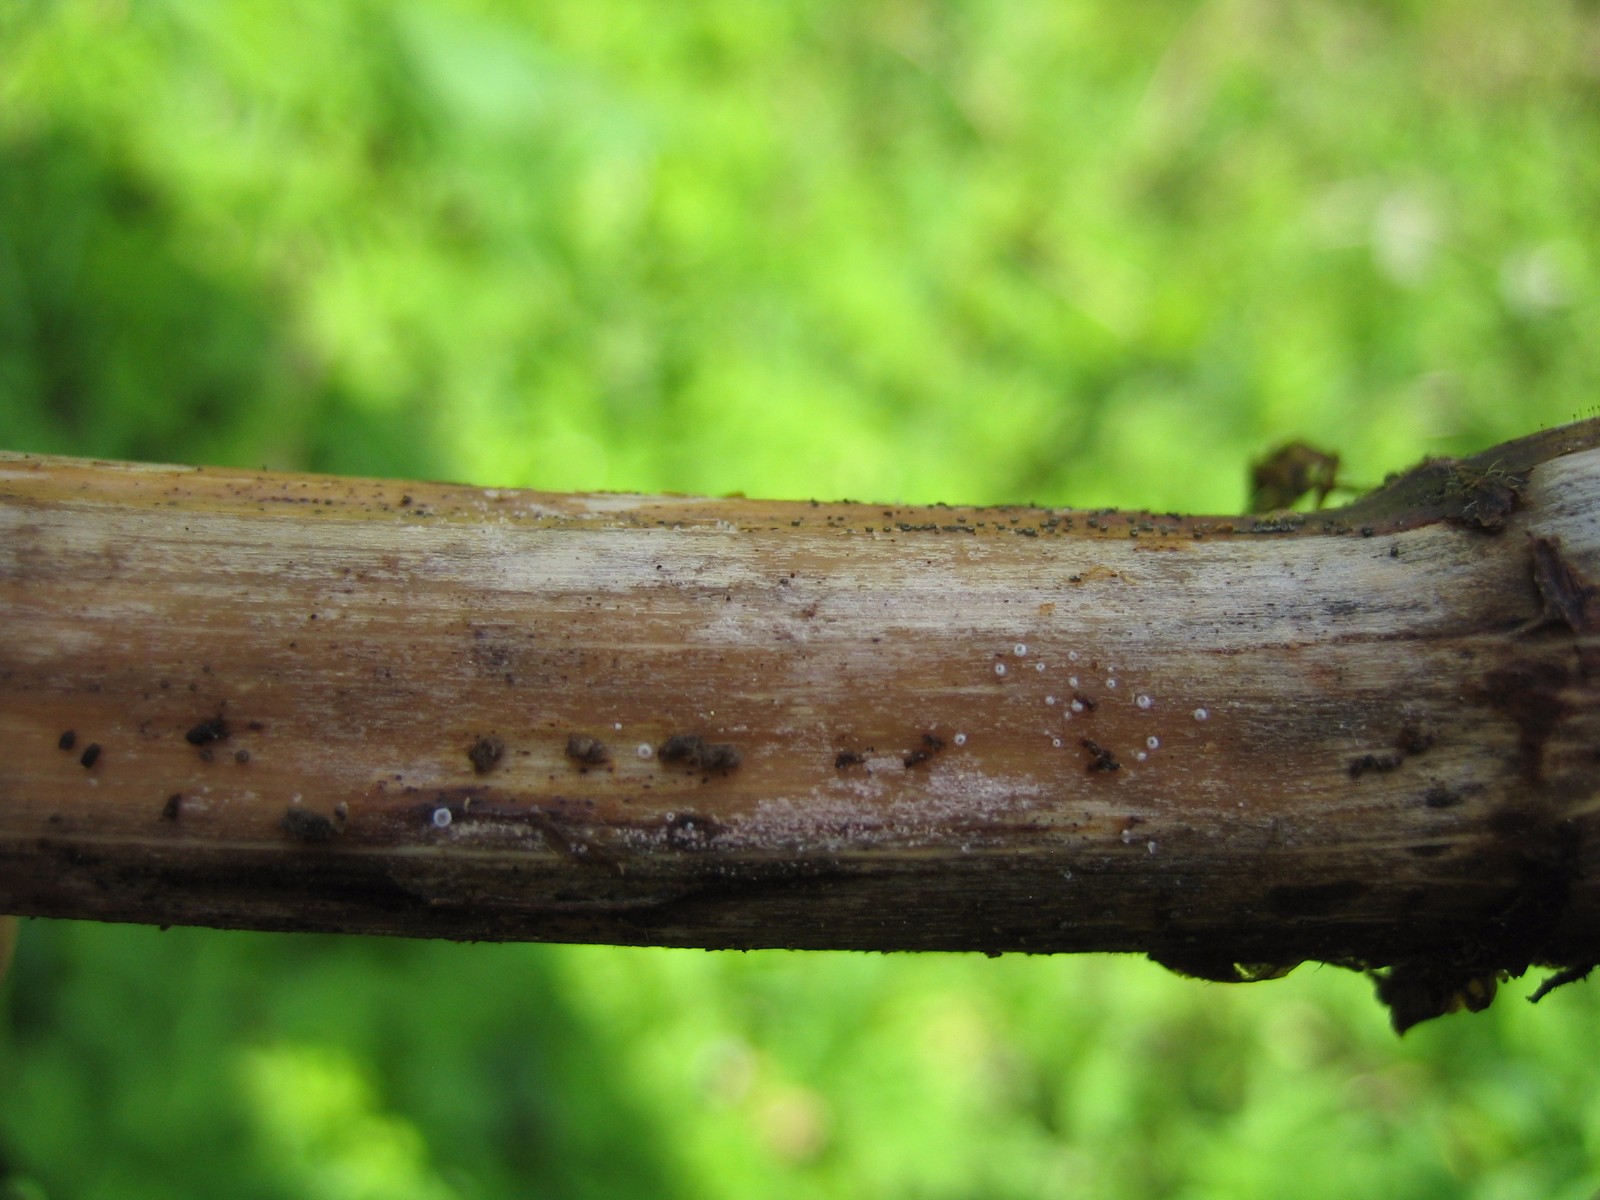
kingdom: Fungi
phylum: Ascomycota
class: Leotiomycetes
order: Helotiales
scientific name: Helotiales
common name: stilkskiveordenen
